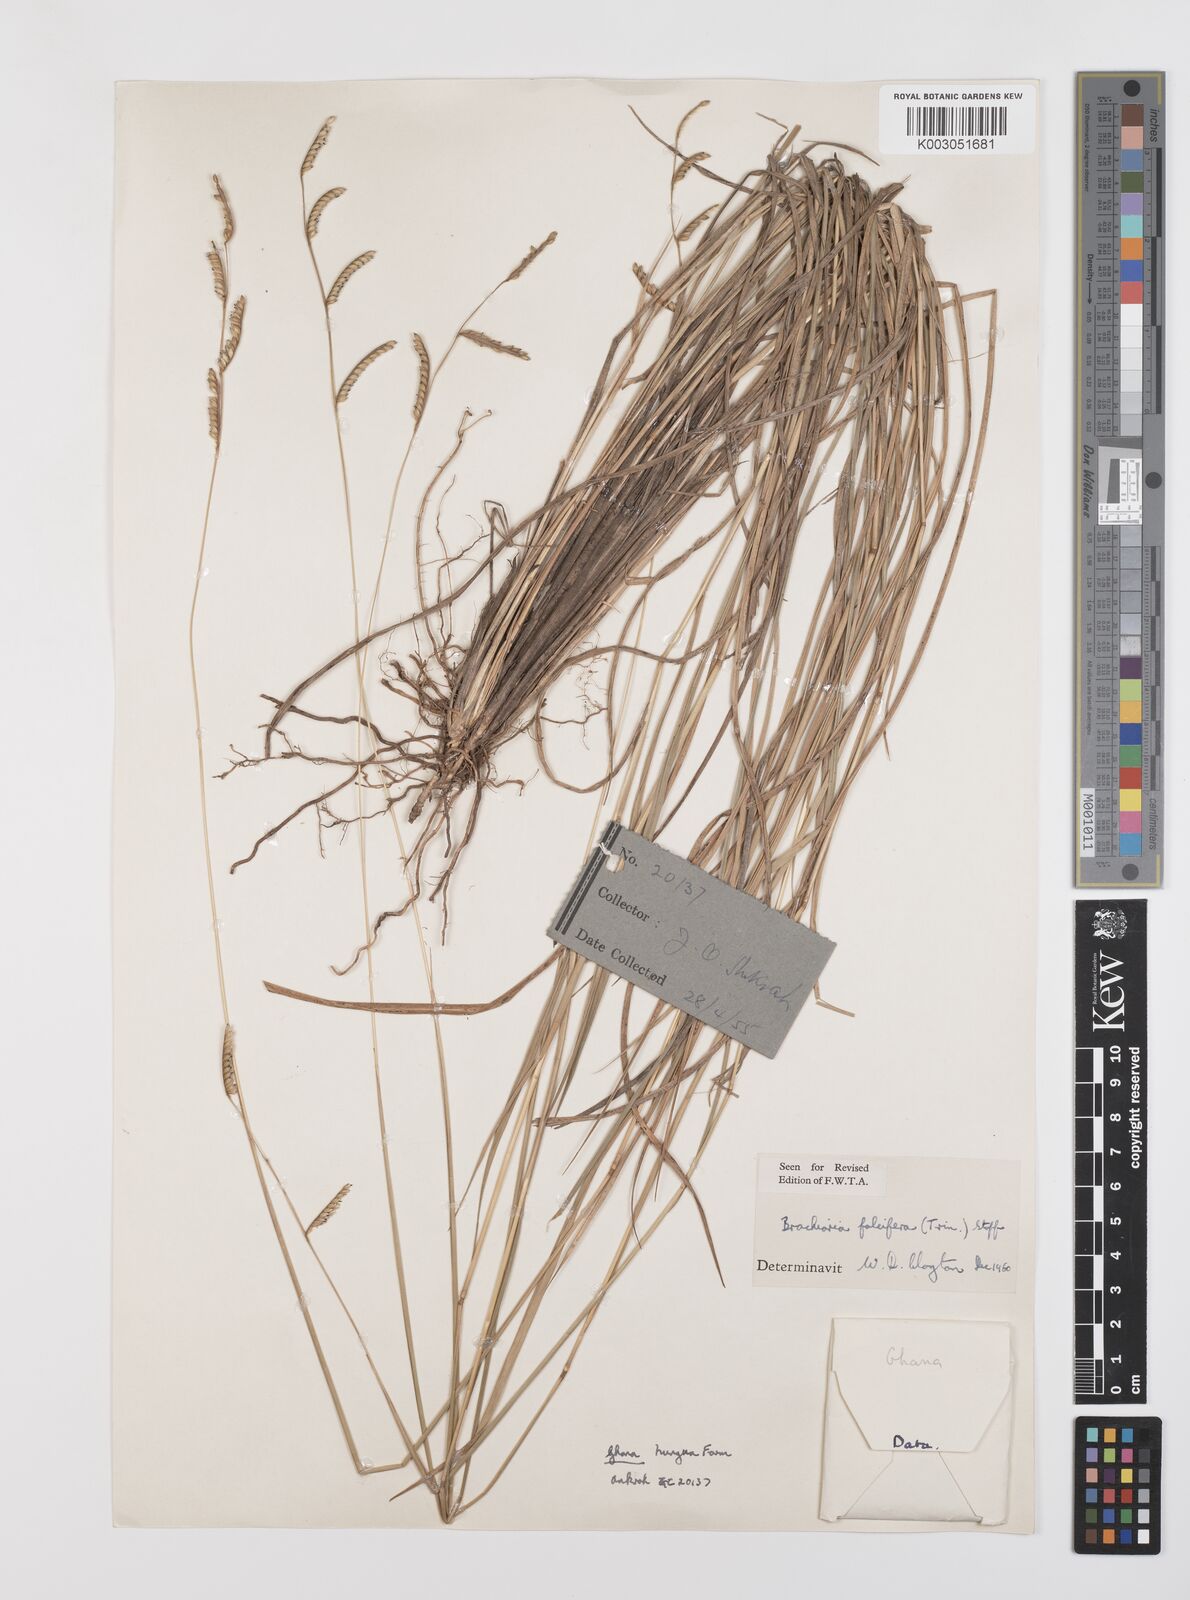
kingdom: Plantae
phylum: Tracheophyta
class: Liliopsida
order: Poales
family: Poaceae
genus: Urochloa
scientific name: Urochloa falcifera
